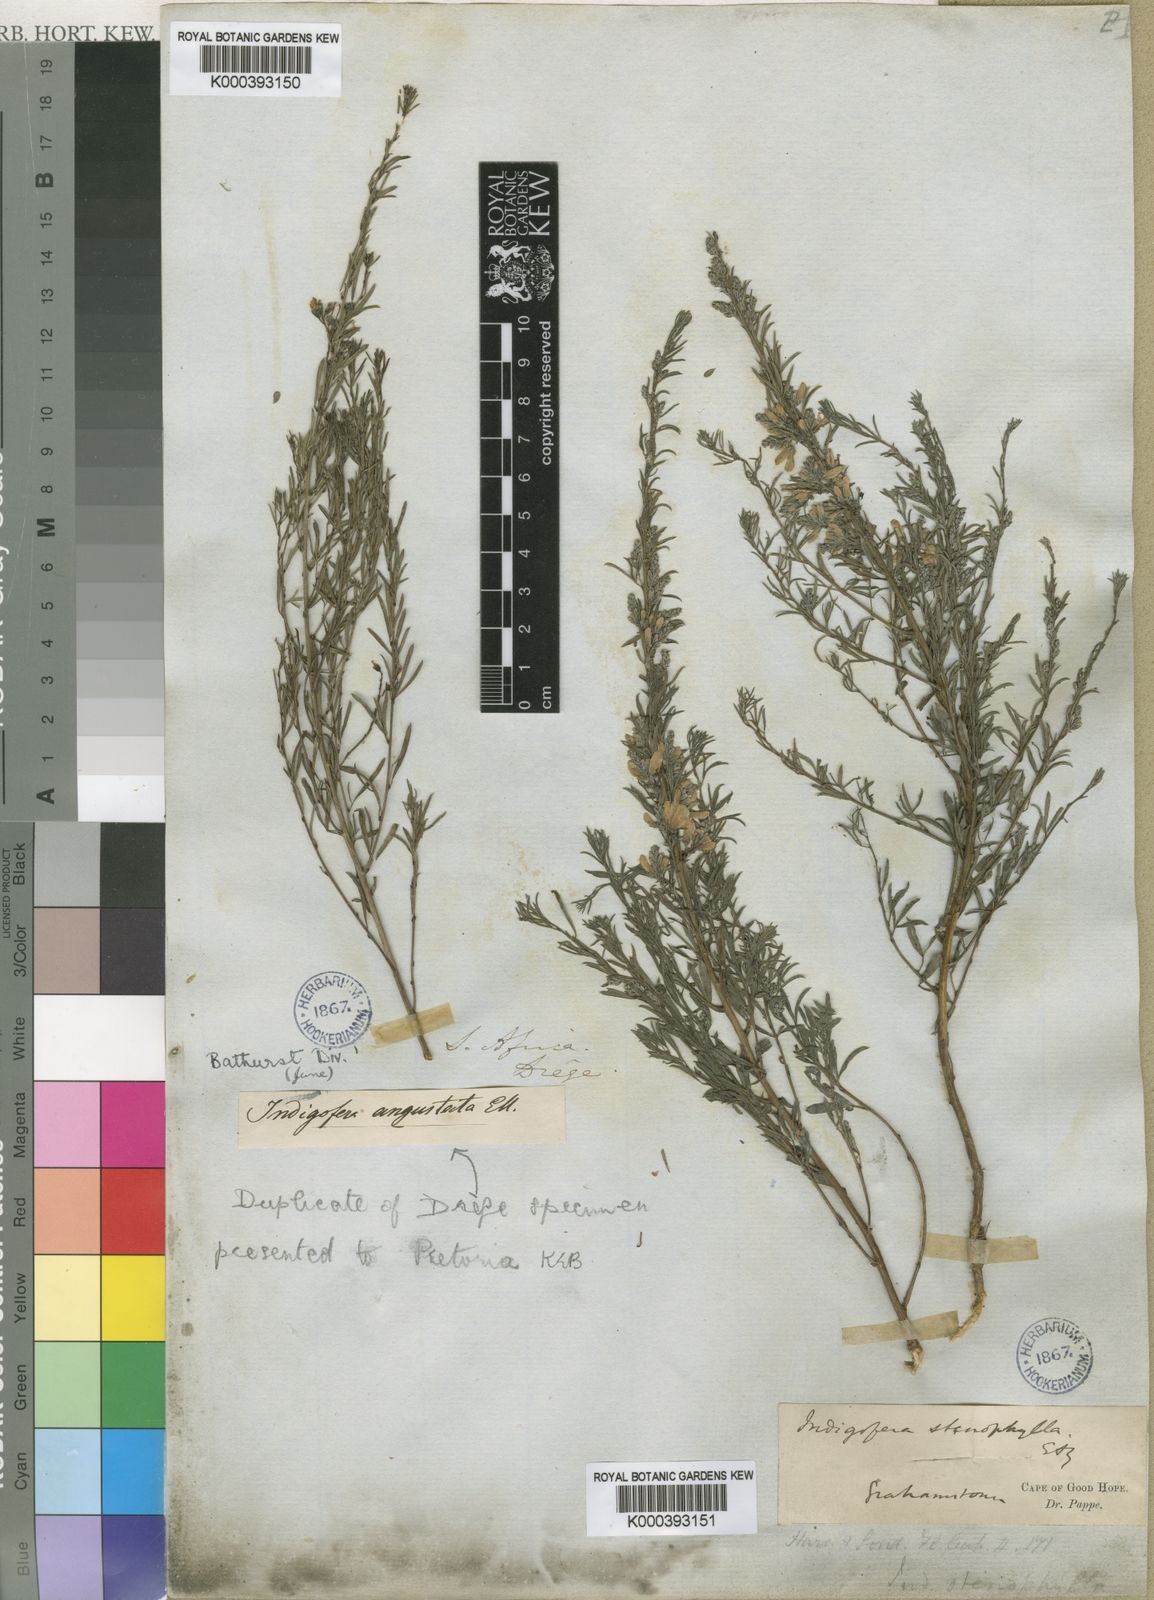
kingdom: Plantae
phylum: Tracheophyta
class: Magnoliopsida
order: Fabales
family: Fabaceae
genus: Indigofera
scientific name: Indigofera angustata
